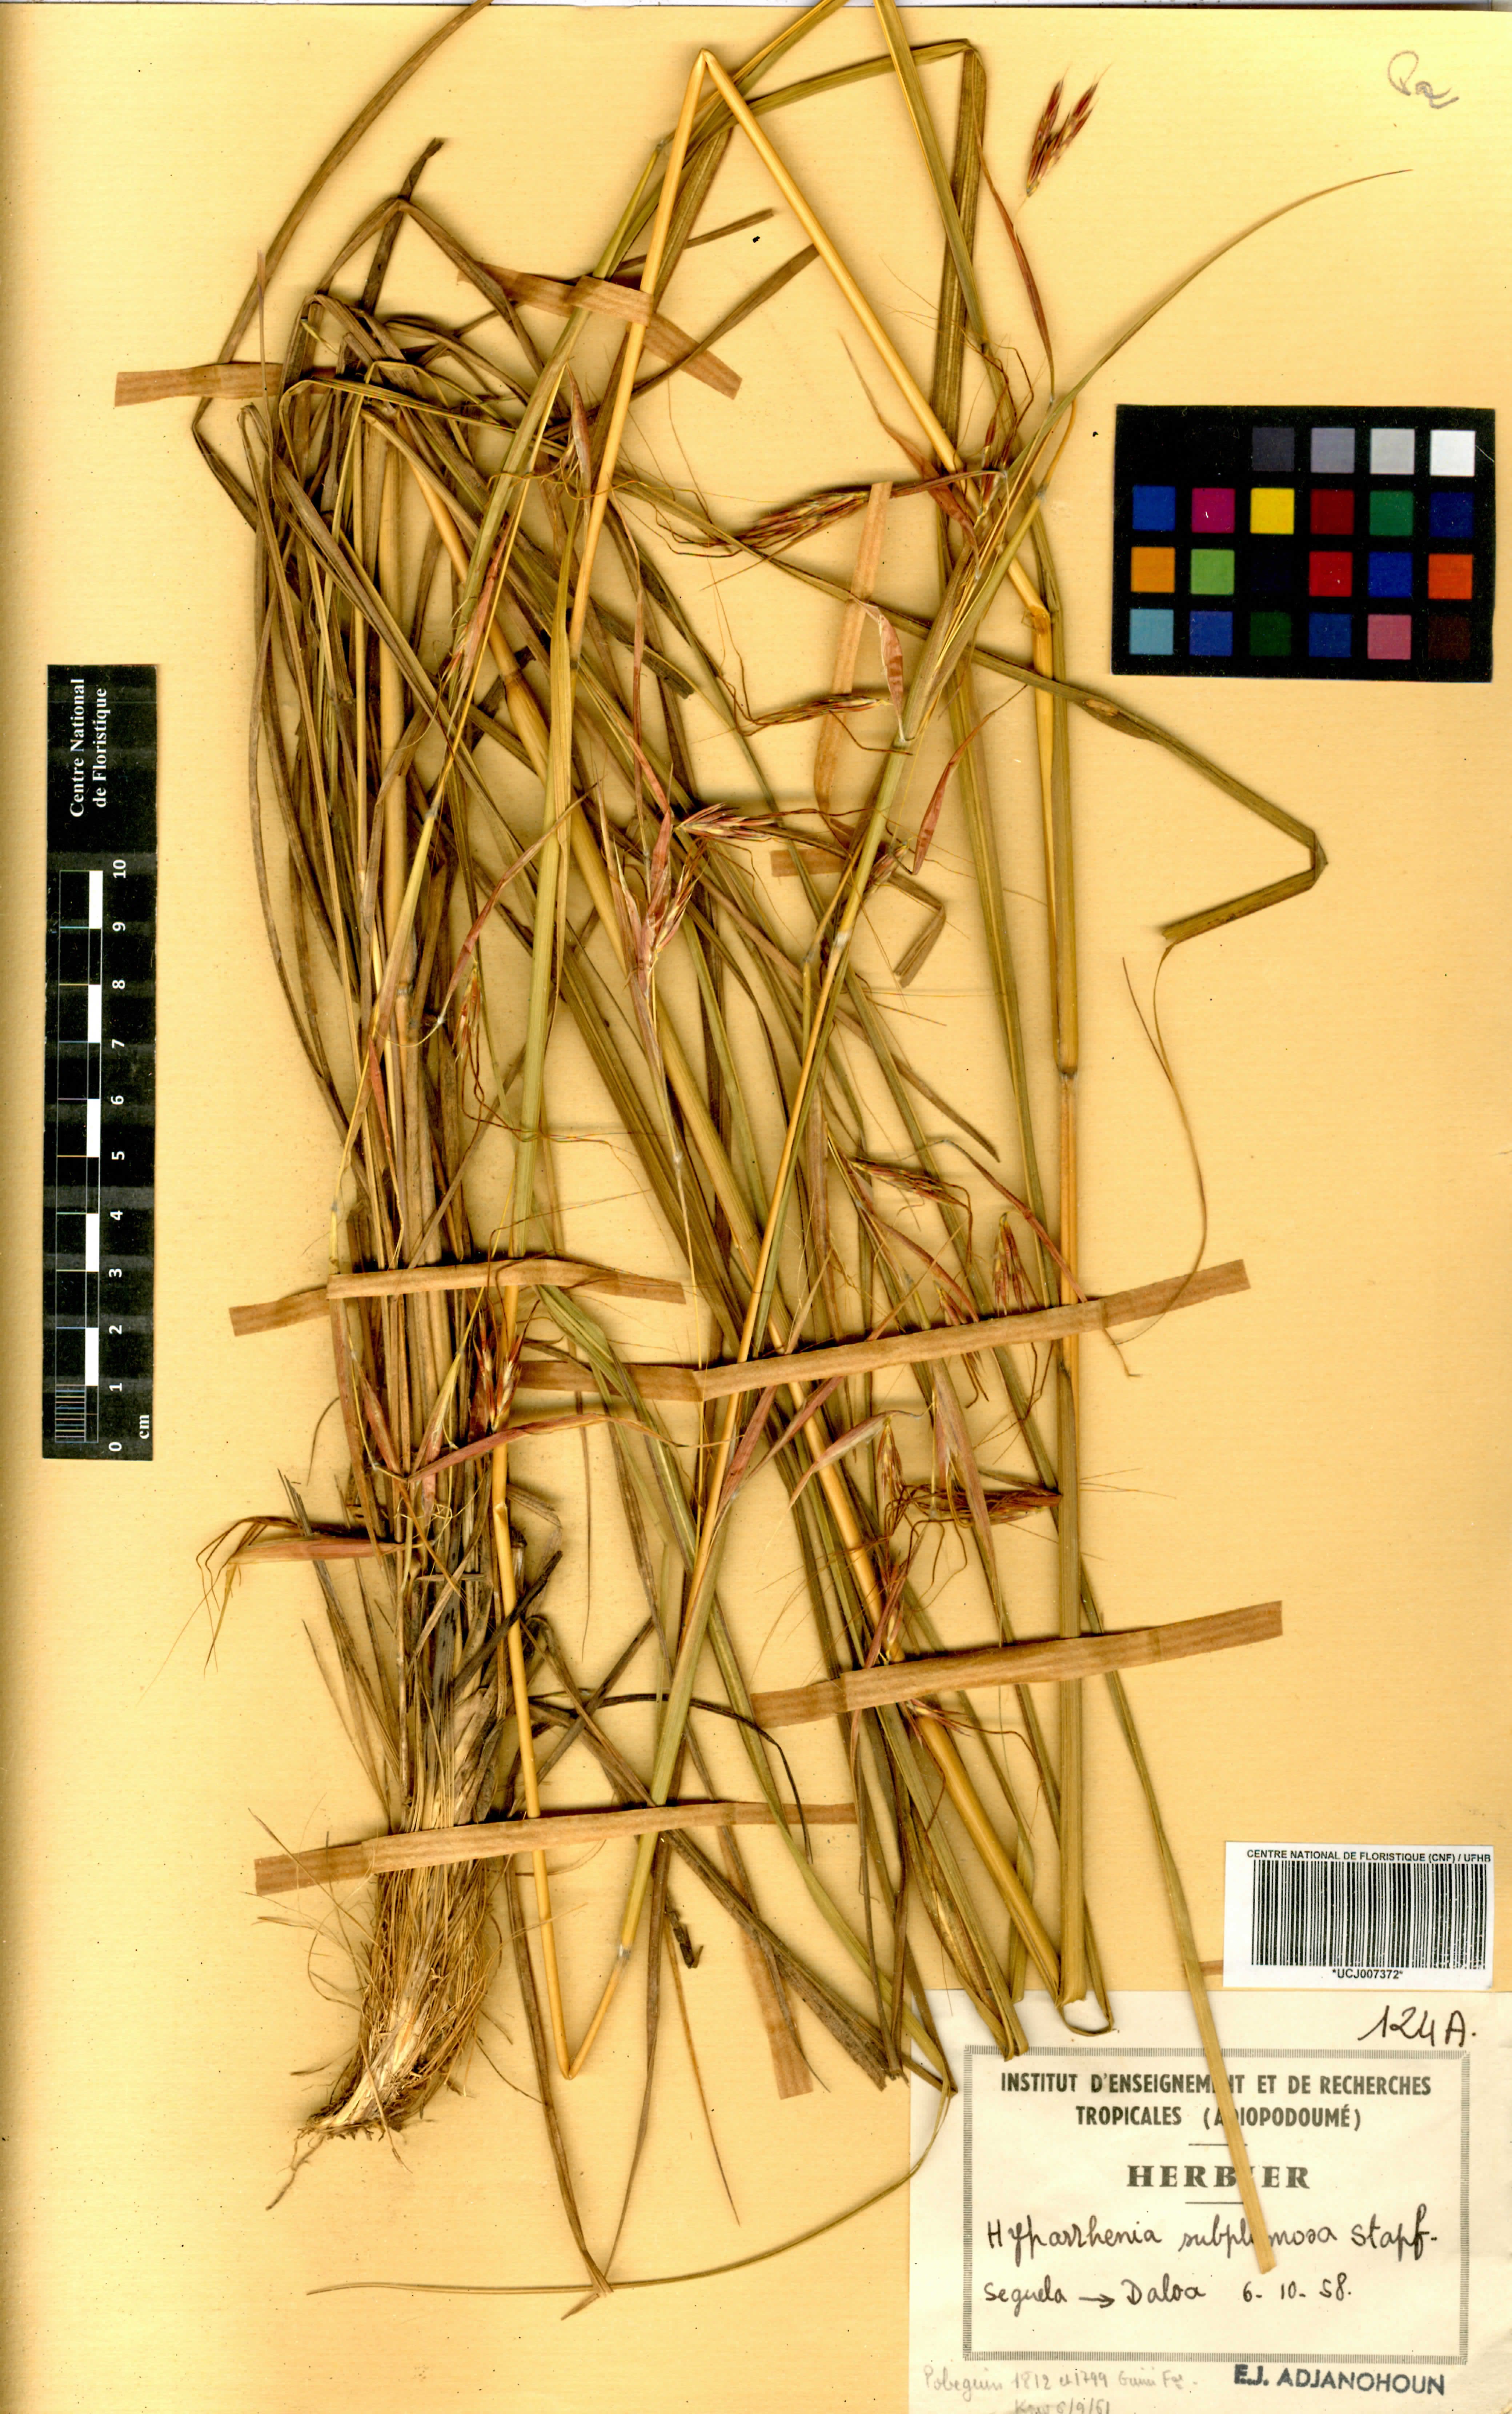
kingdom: Plantae
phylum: Tracheophyta
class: Liliopsida
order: Poales
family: Poaceae
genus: Hyparrhenia
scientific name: Hyparrhenia subplumosa
